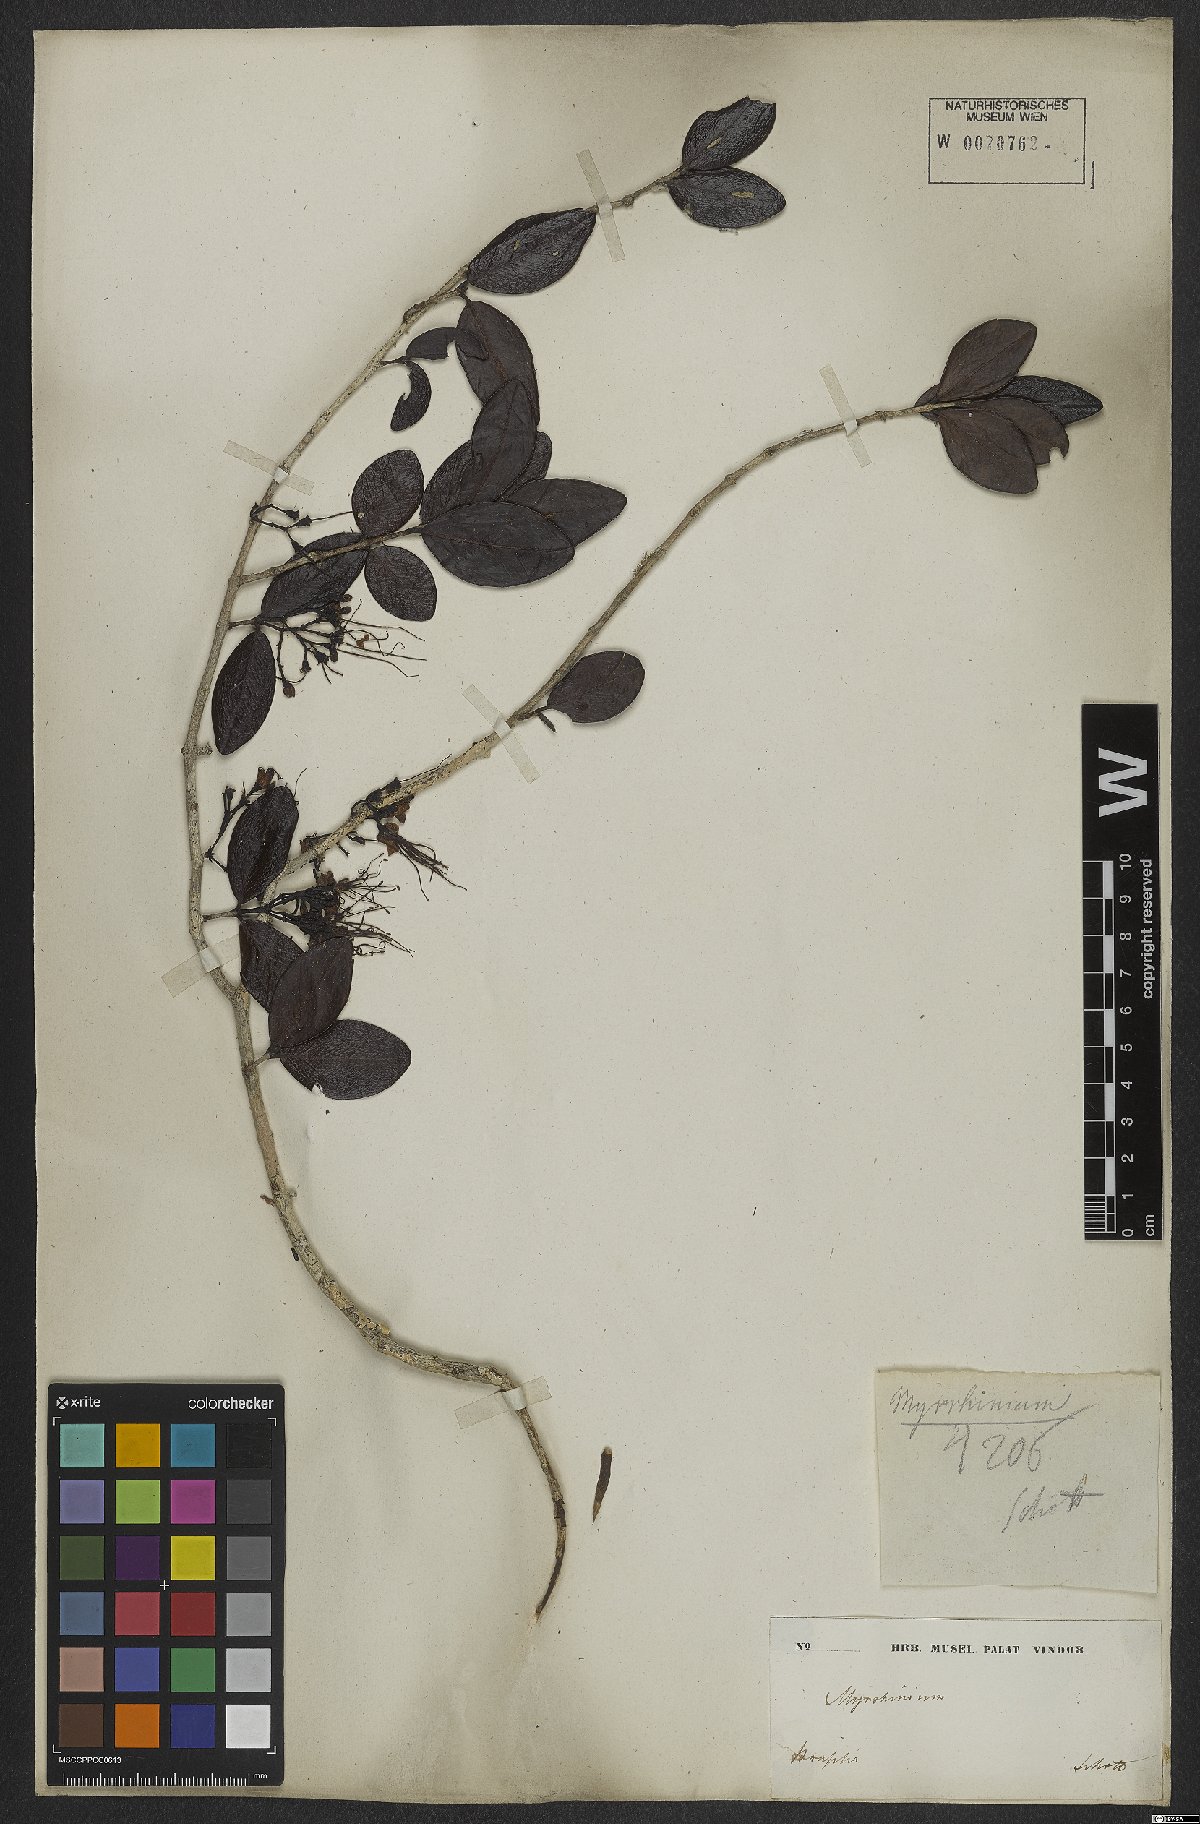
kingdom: Plantae
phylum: Tracheophyta
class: Magnoliopsida
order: Myrtales
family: Myrtaceae
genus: Myrrhinium
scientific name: Myrrhinium atropurpureum
